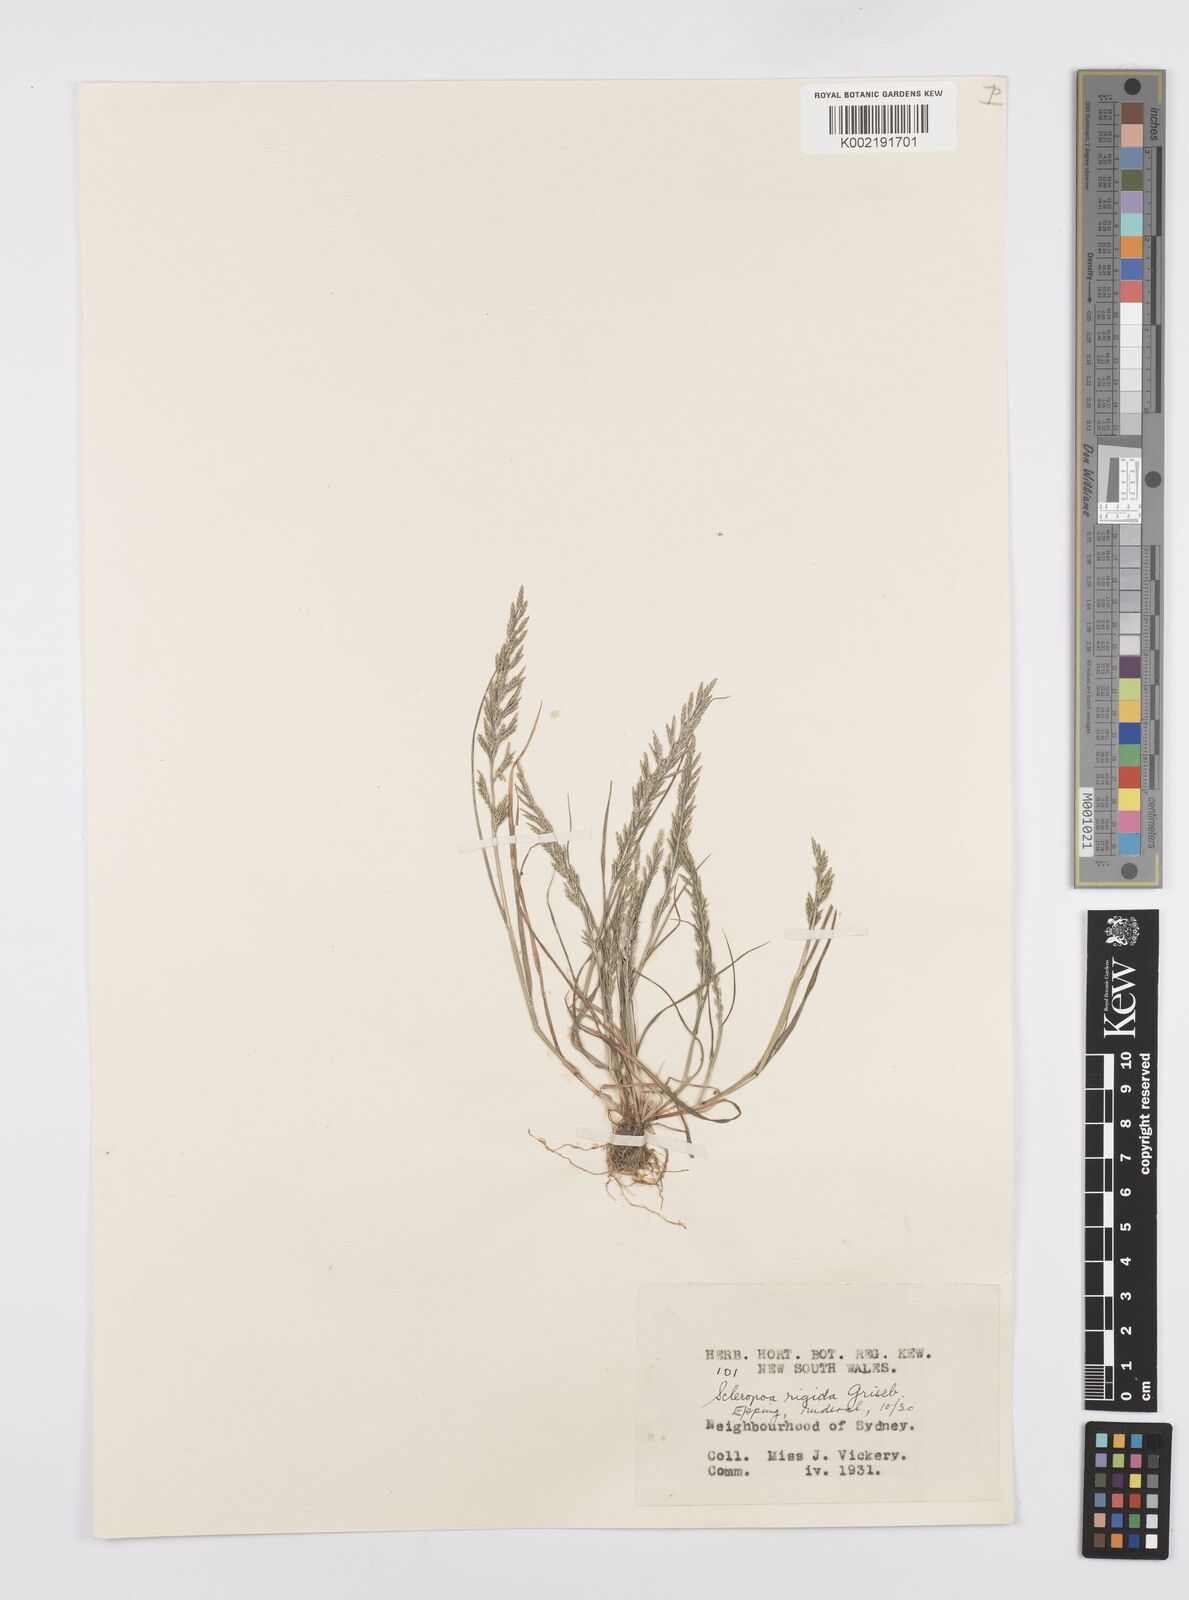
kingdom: Plantae
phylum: Tracheophyta
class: Liliopsida
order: Poales
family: Poaceae
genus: Catapodium
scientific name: Catapodium rigidum
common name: Fern-grass
